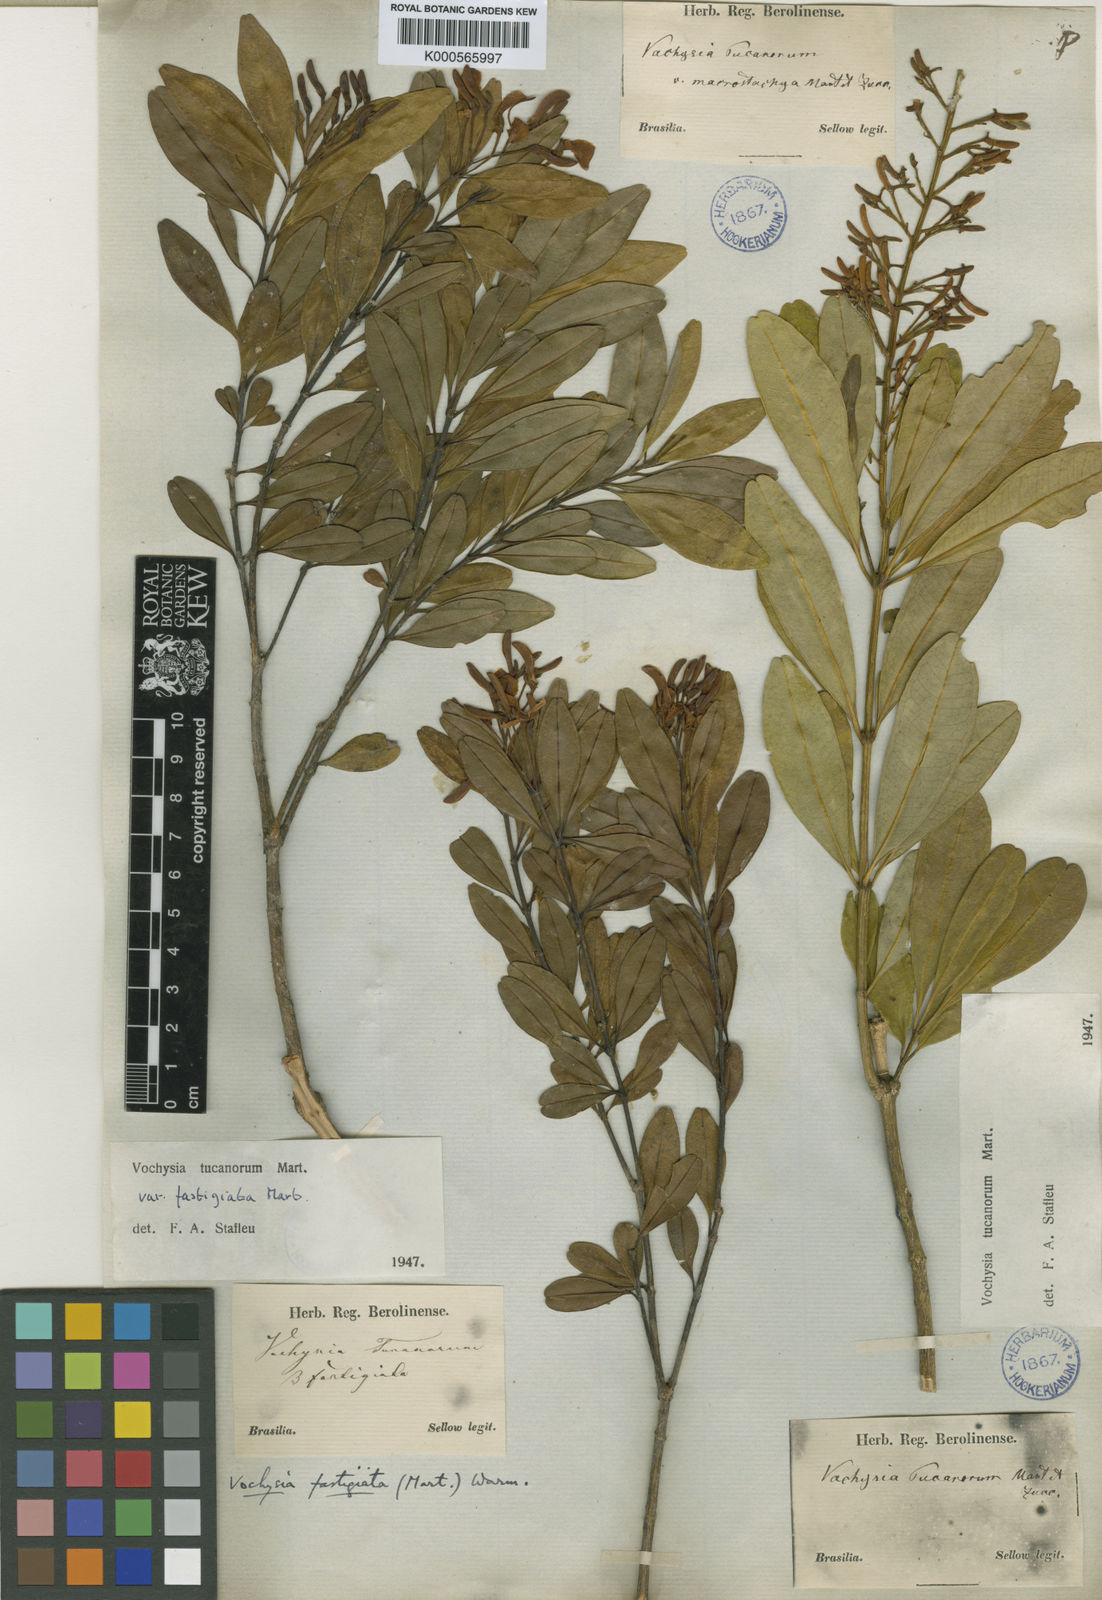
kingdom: Plantae
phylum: Tracheophyta
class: Magnoliopsida
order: Myrtales
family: Vochysiaceae
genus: Vochysia
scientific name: Vochysia tucanorum
